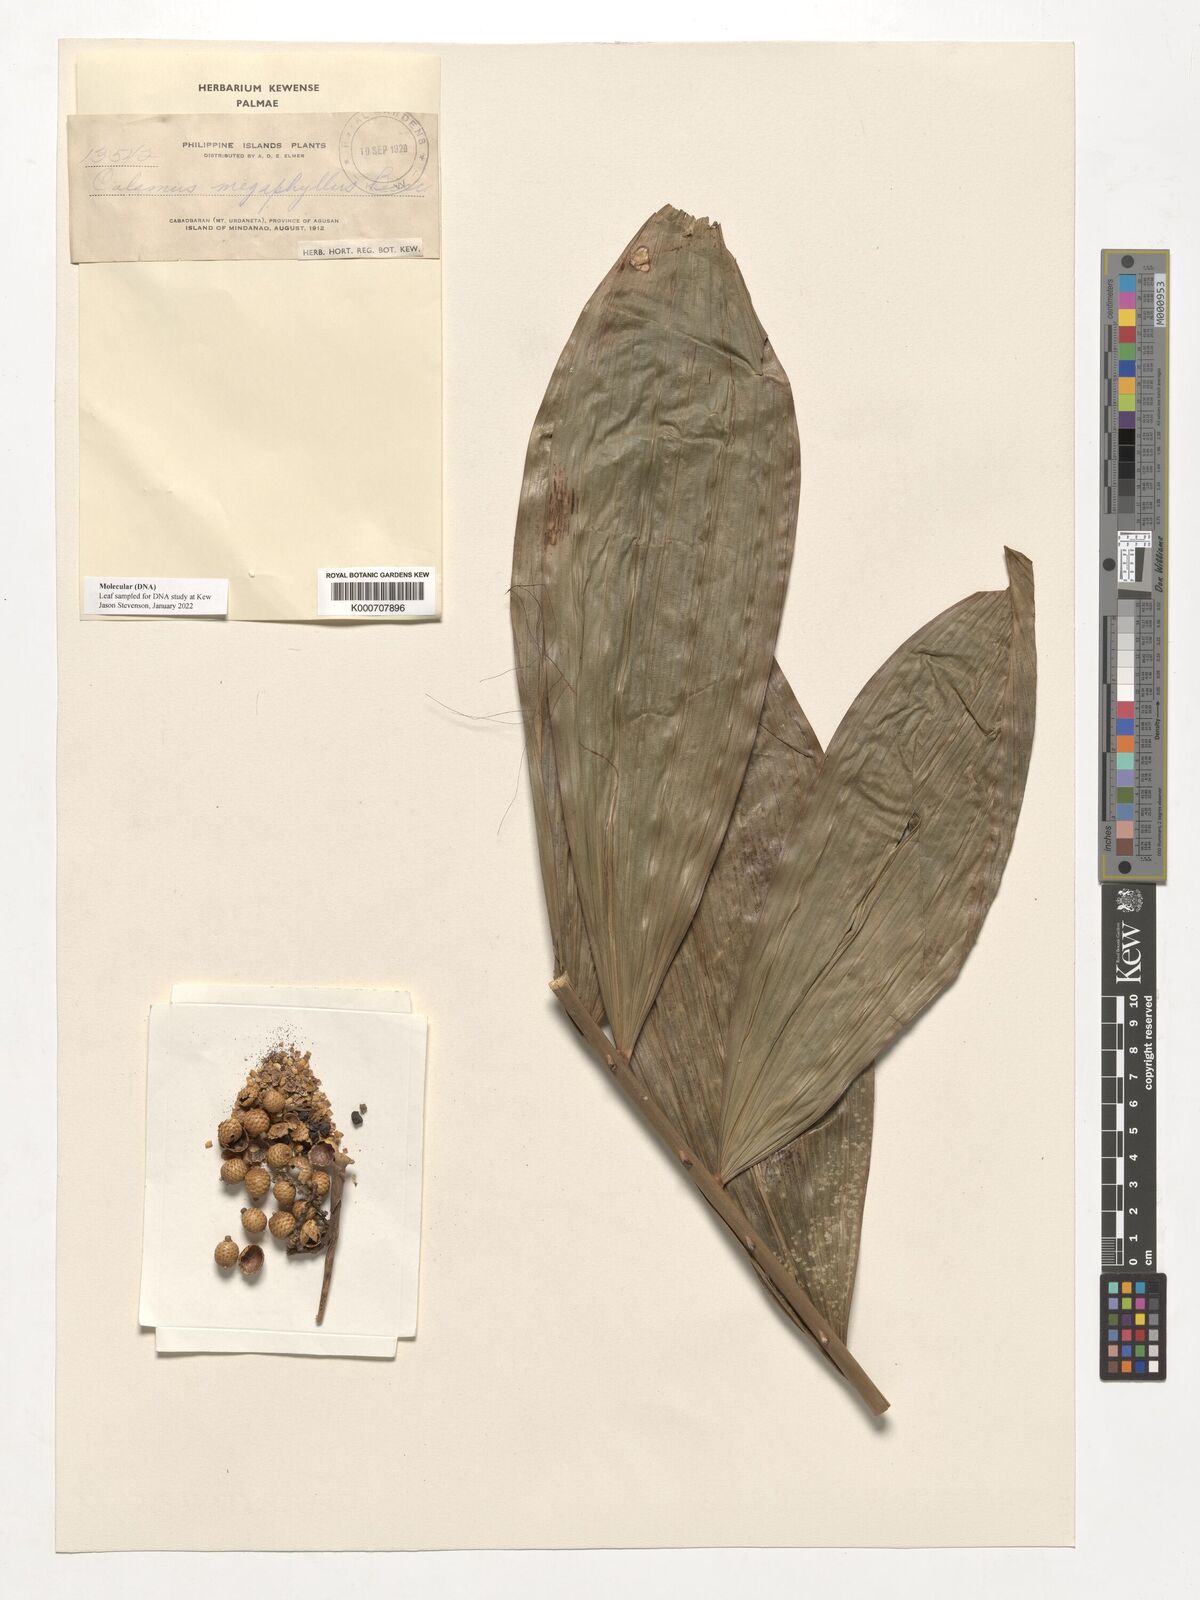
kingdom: Plantae
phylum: Tracheophyta
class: Liliopsida
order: Arecales
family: Arecaceae
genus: Calamus
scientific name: Calamus megaphyllus
